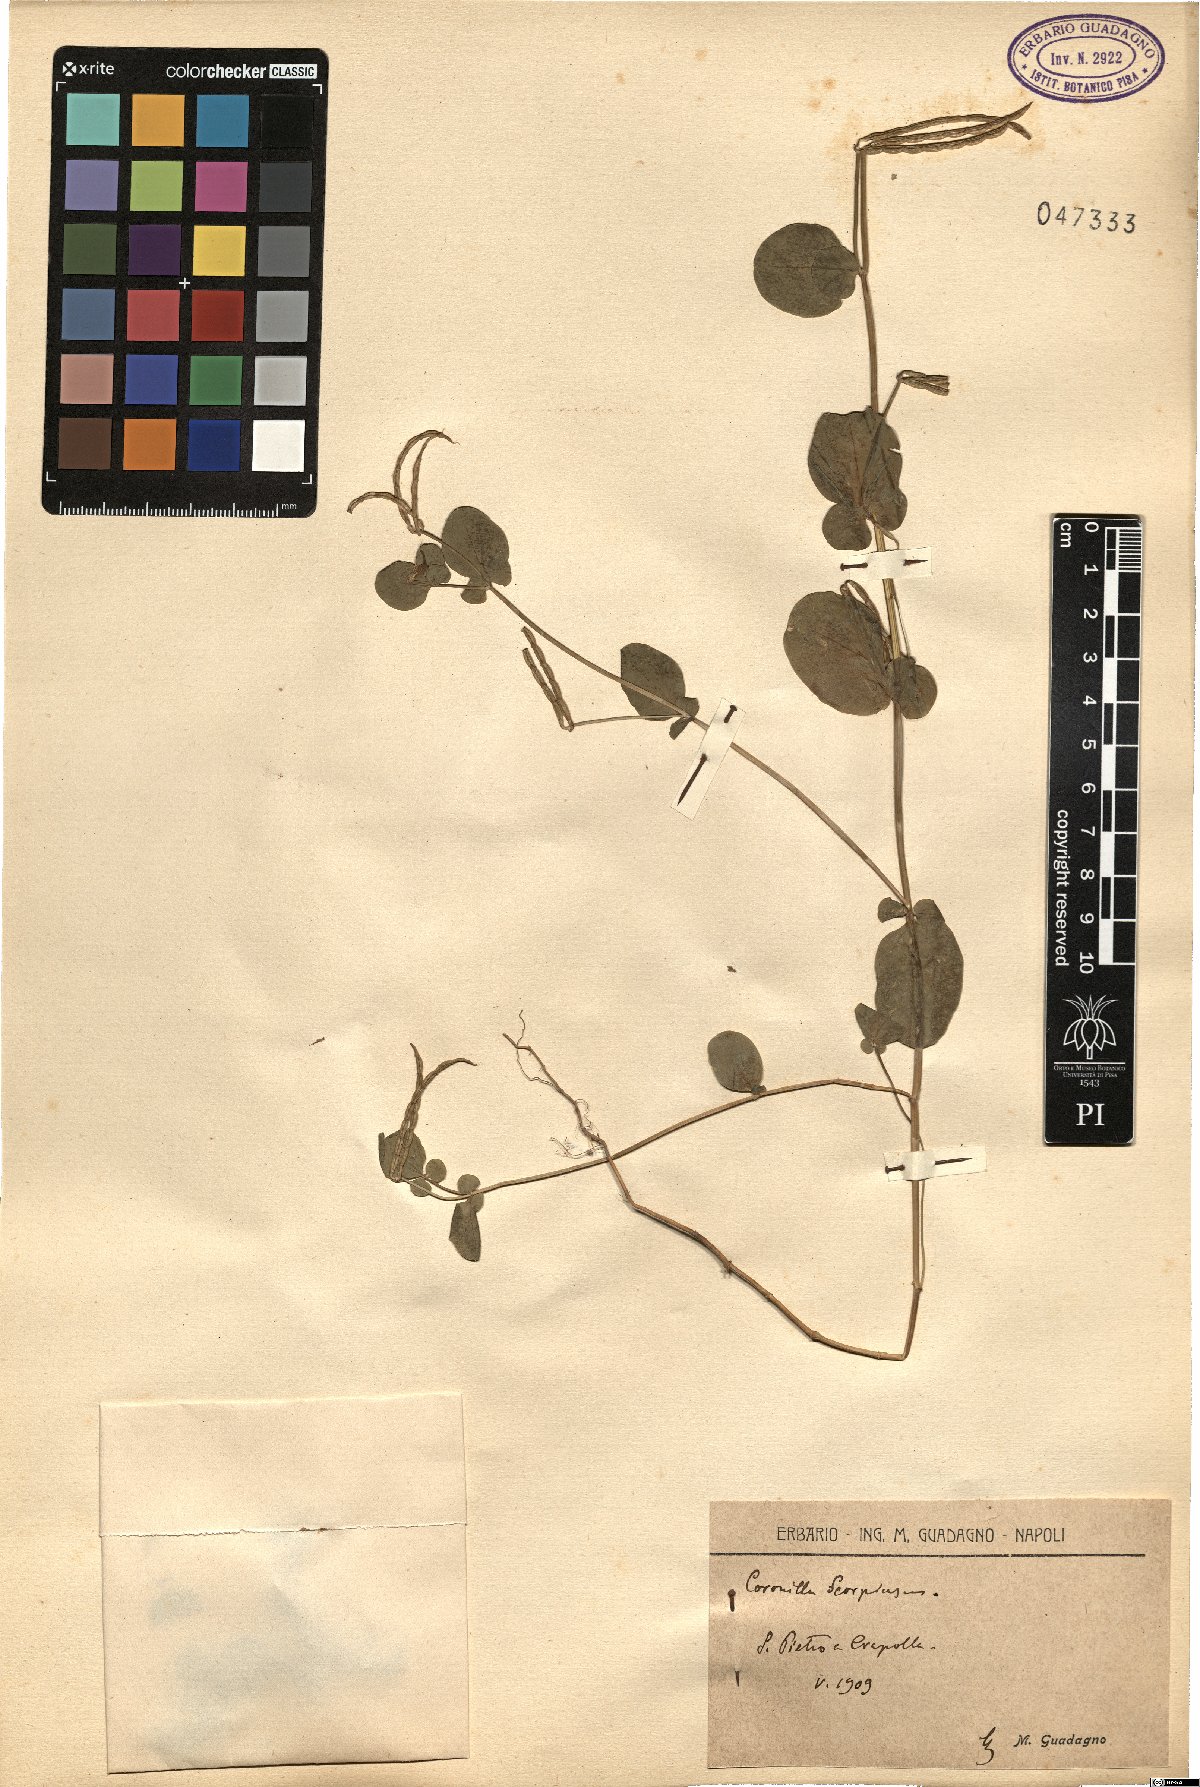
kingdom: Plantae
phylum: Tracheophyta
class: Magnoliopsida
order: Fabales
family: Fabaceae
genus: Coronilla
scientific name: Coronilla scorpioides
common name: Annual scorpion-vetch
